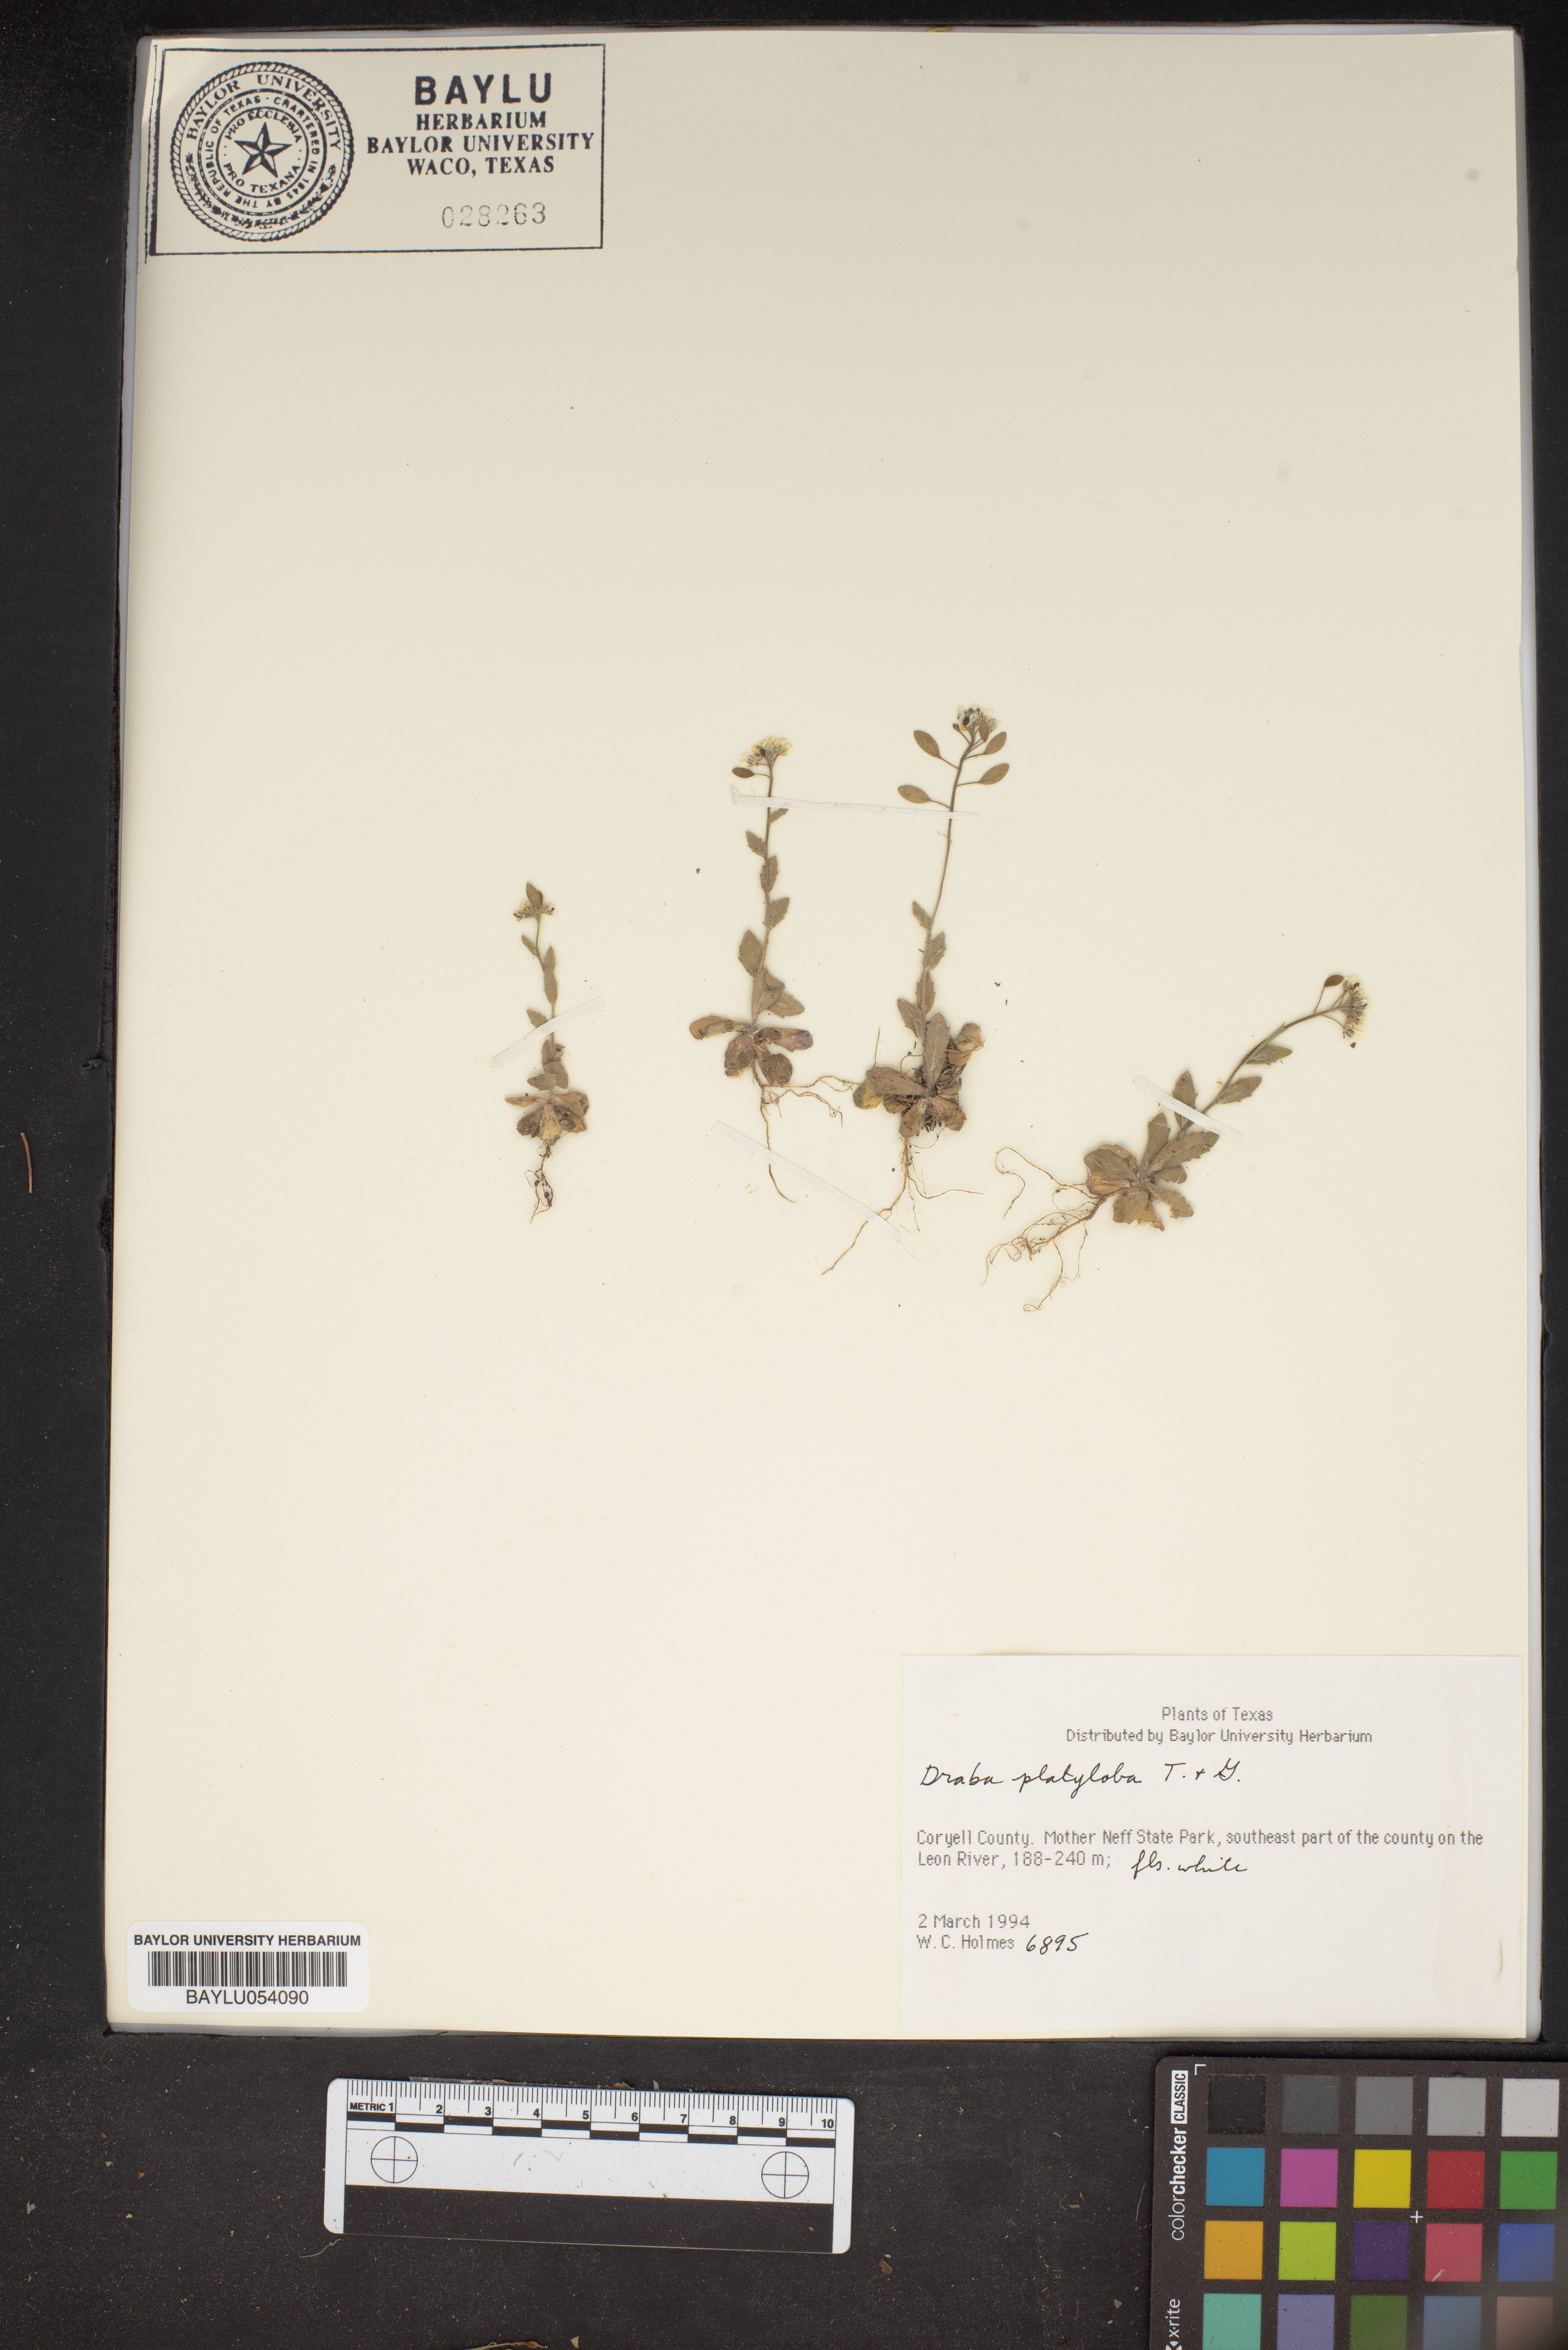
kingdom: Plantae
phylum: Tracheophyta
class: Magnoliopsida
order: Brassicales
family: Brassicaceae
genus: Tomostima
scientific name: Tomostima platycarpa
